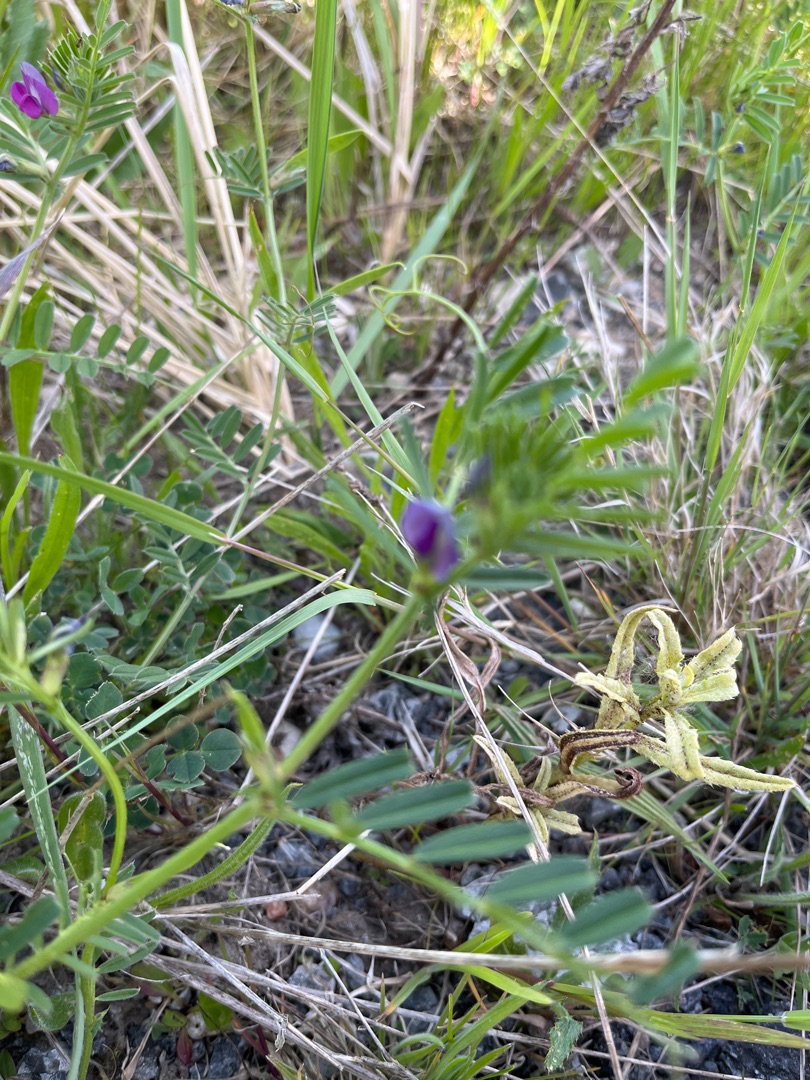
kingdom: Plantae
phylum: Tracheophyta
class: Magnoliopsida
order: Fabales
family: Fabaceae
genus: Vicia
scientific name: Vicia sativa
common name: Smalbladet vikke
